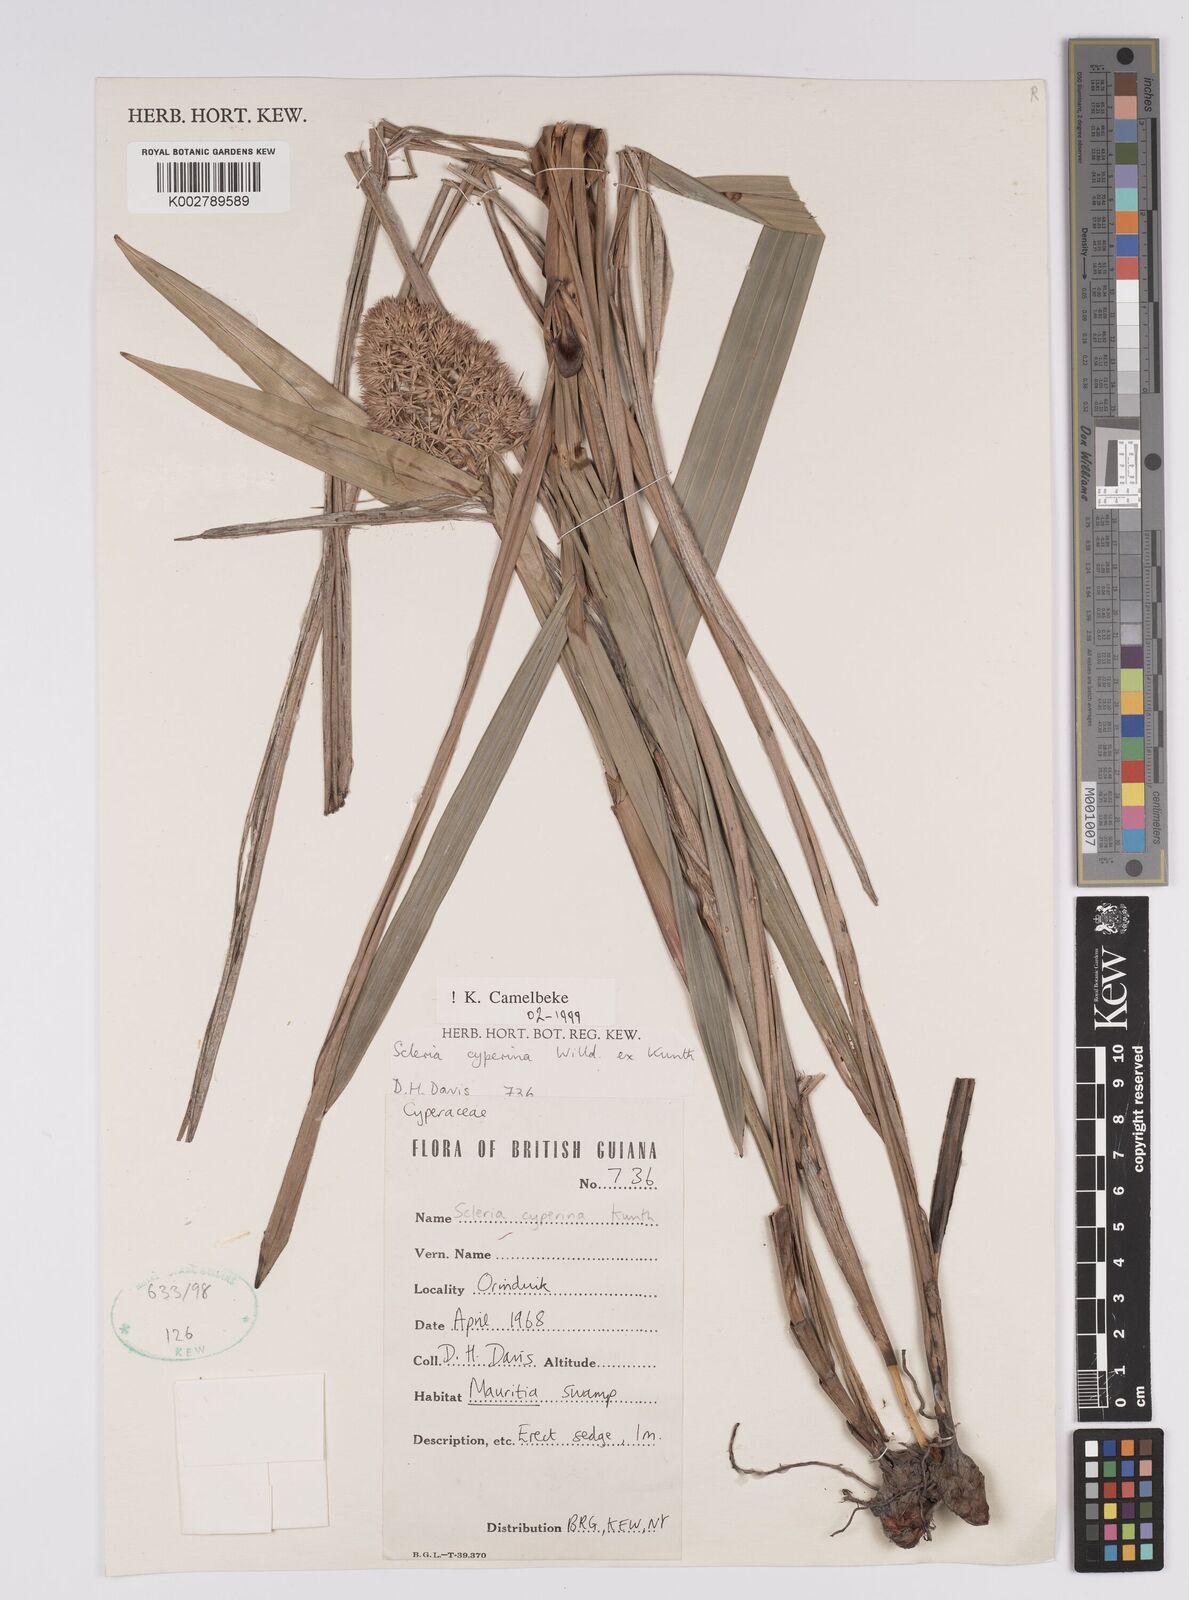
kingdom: Plantae
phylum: Tracheophyta
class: Liliopsida
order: Poales
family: Cyperaceae
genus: Scleria
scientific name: Scleria cyperina
